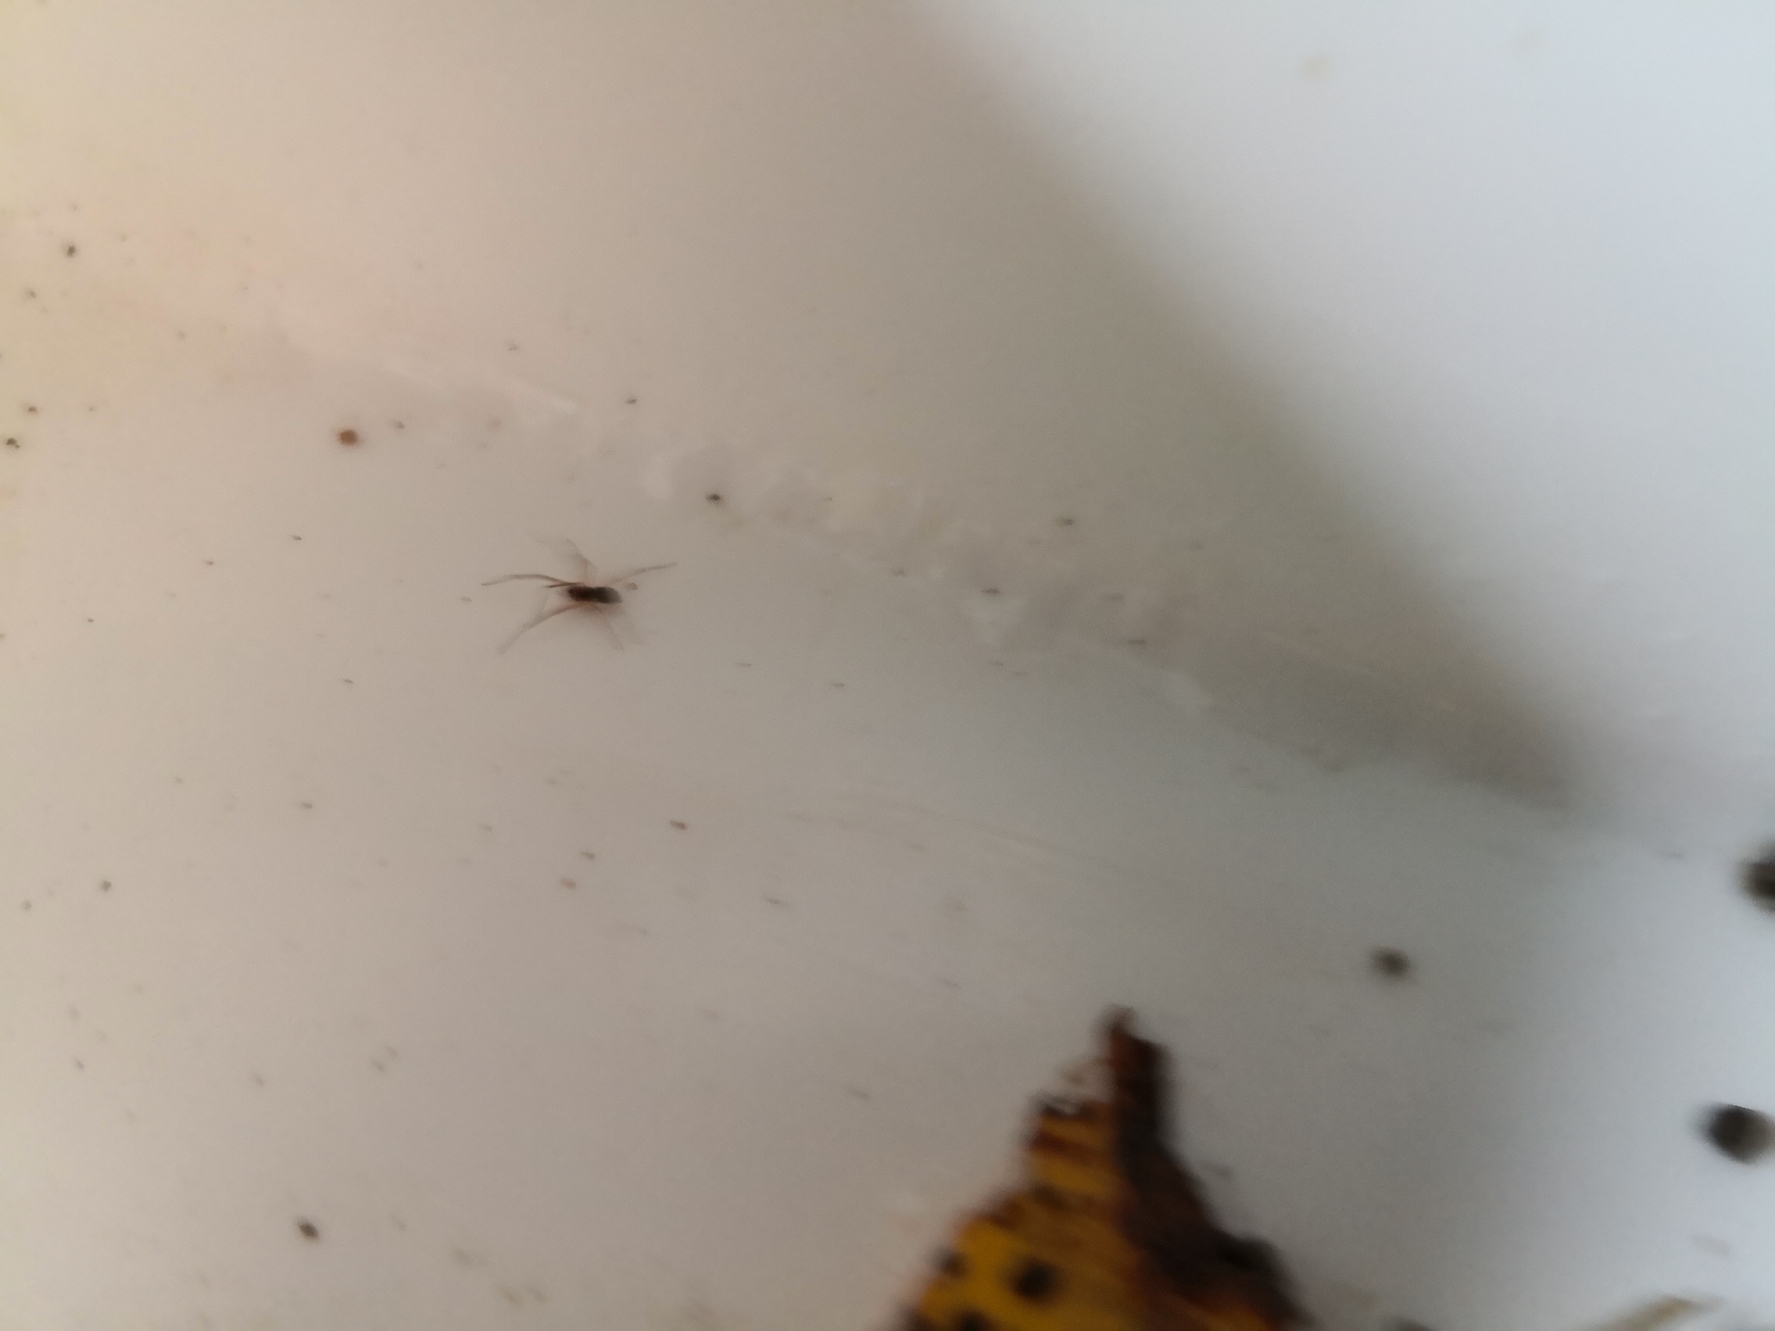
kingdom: Animalia
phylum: Arthropoda
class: Arachnida
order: Araneae
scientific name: Araneae
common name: Edderkopper
